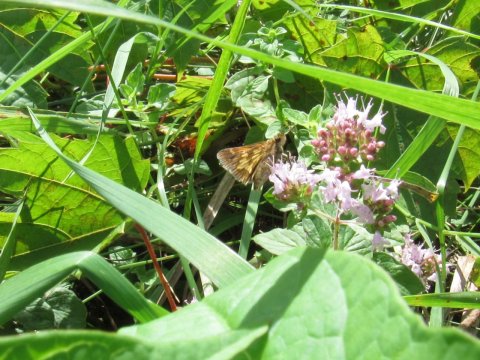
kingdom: Animalia
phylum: Arthropoda
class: Insecta
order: Lepidoptera
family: Hesperiidae
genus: Polites
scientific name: Polites coras
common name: Peck's Skipper
